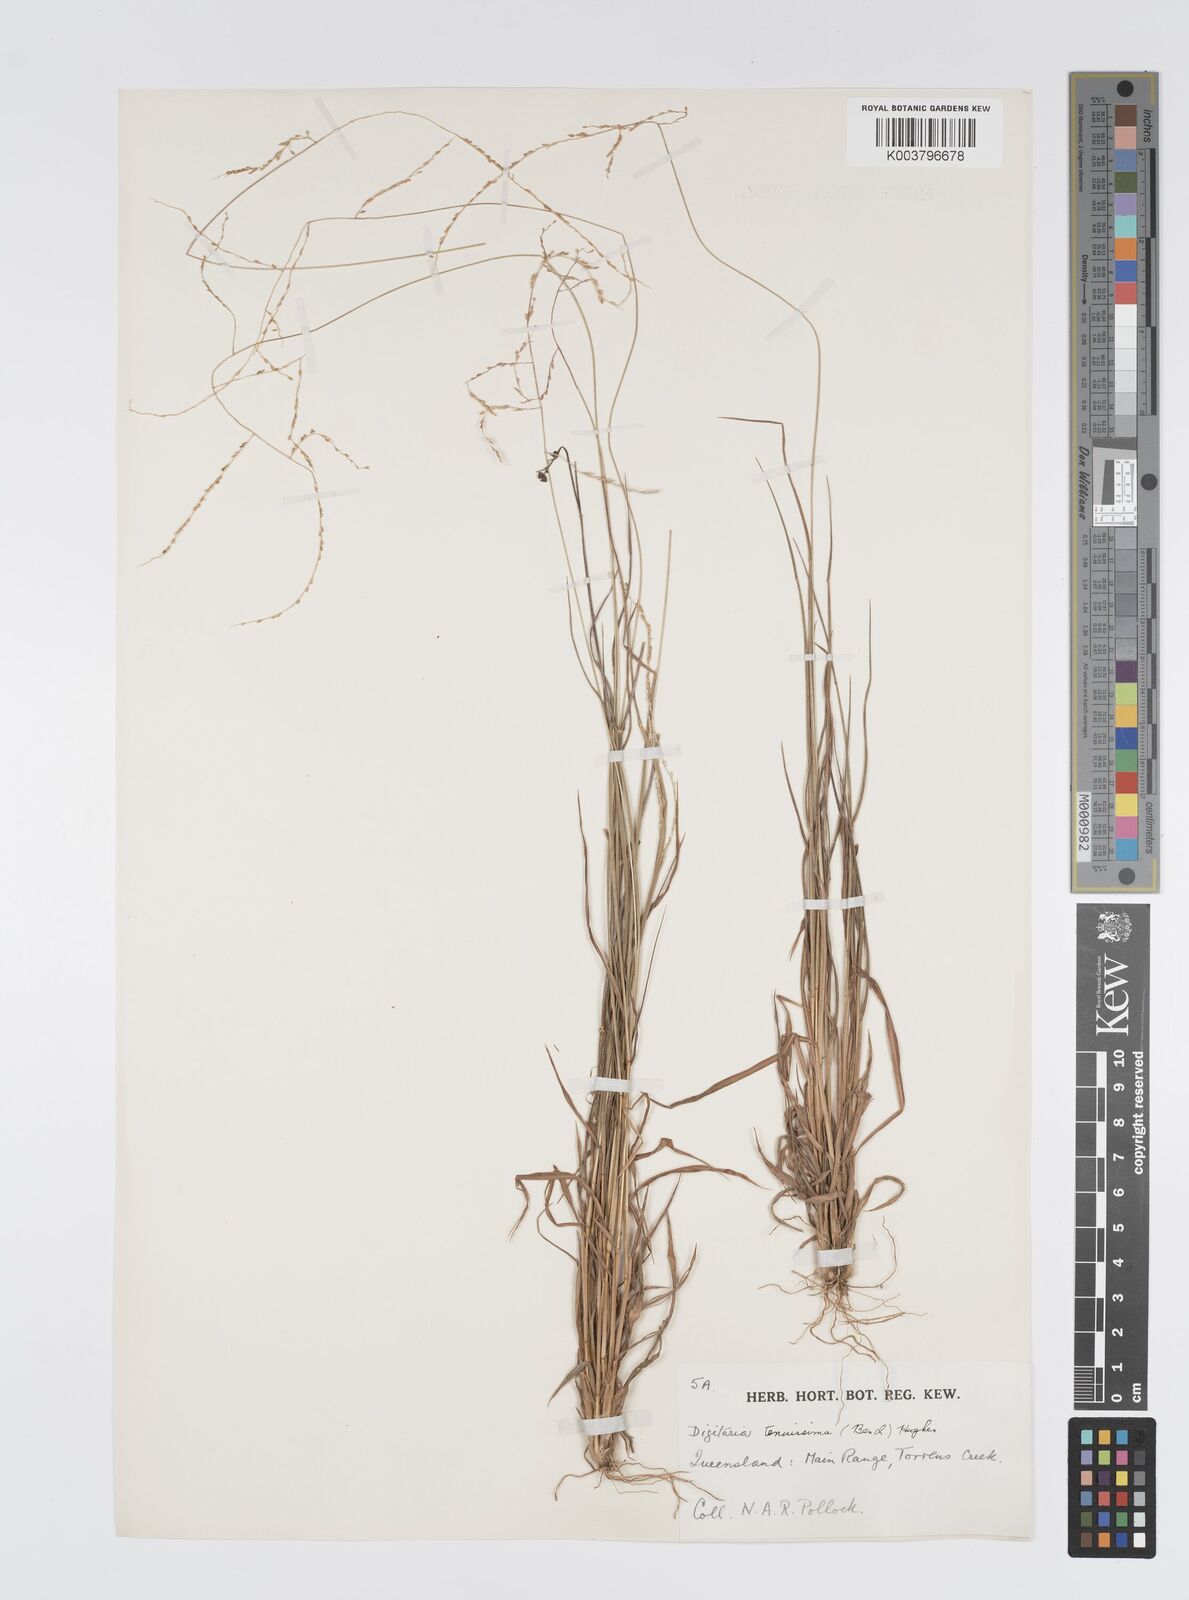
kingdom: Plantae
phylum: Tracheophyta
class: Liliopsida
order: Poales
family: Poaceae
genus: Digitaria
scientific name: Digitaria ramularis
